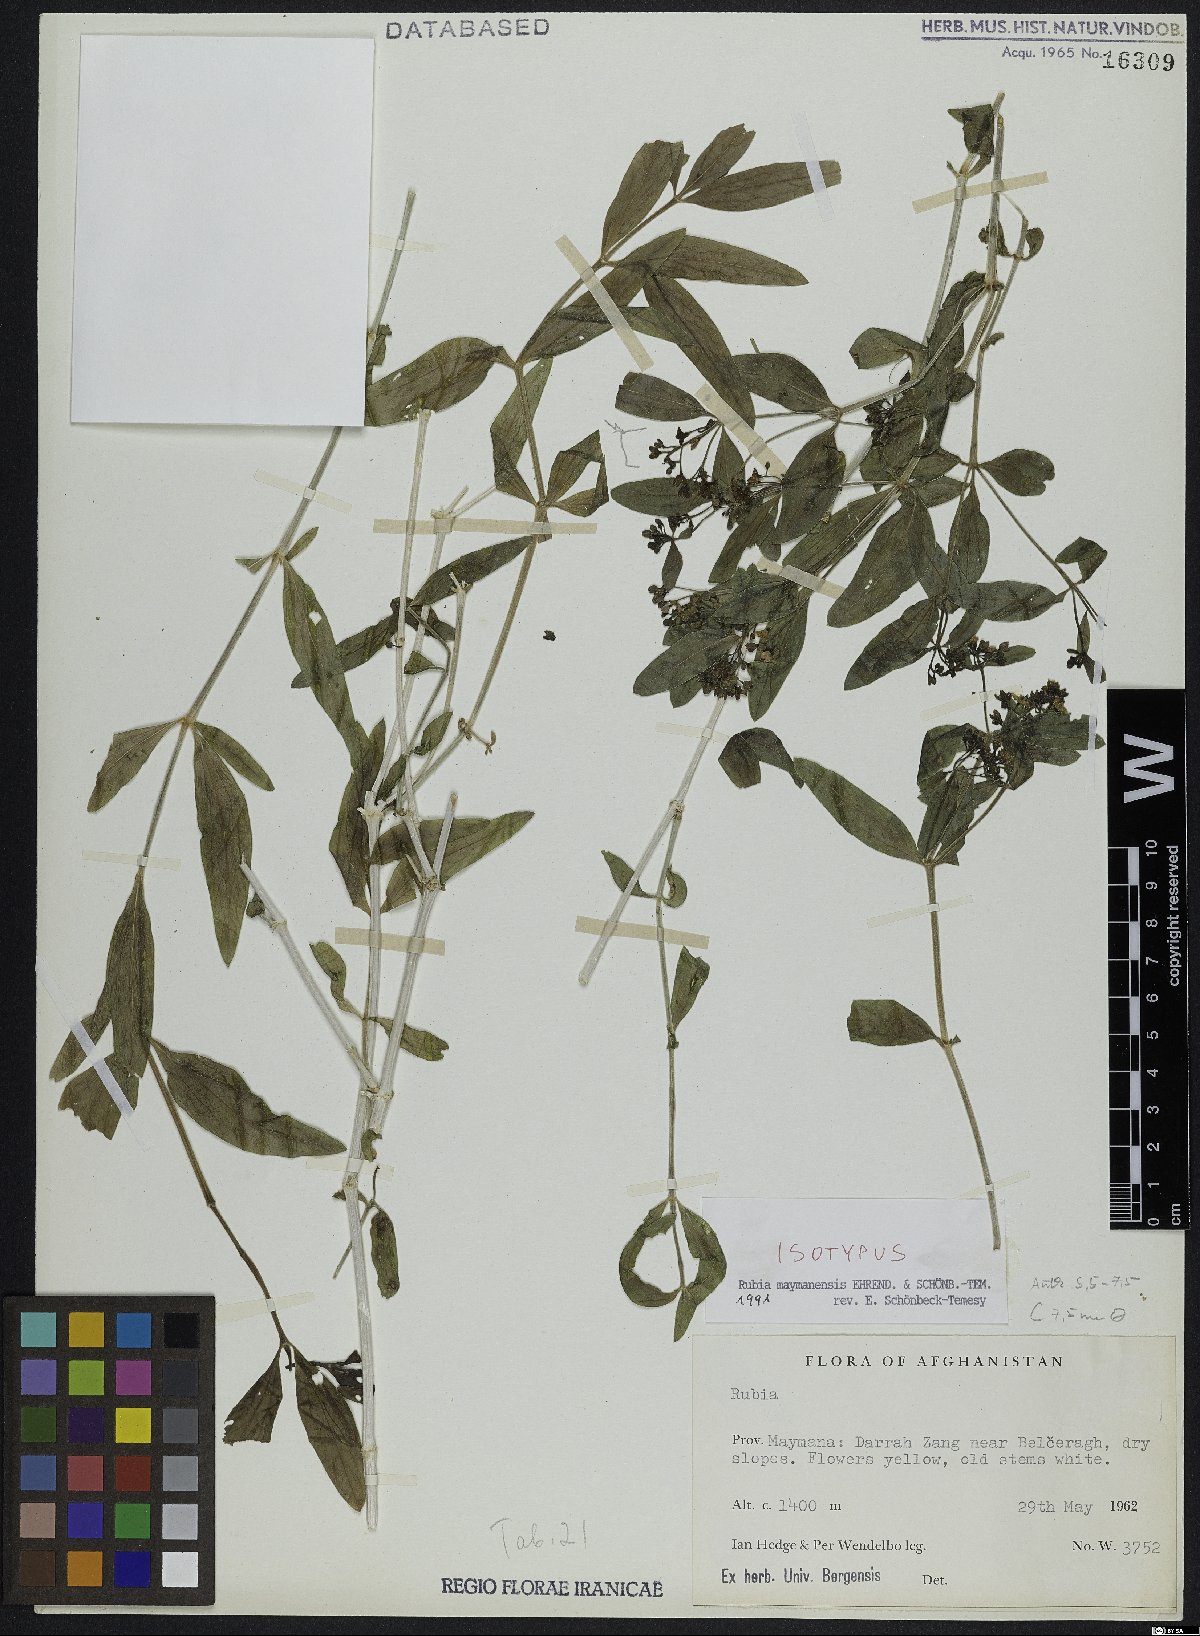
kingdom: Plantae
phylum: Tracheophyta
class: Magnoliopsida
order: Gentianales
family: Rubiaceae
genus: Rubia
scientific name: Rubia maymanensis
